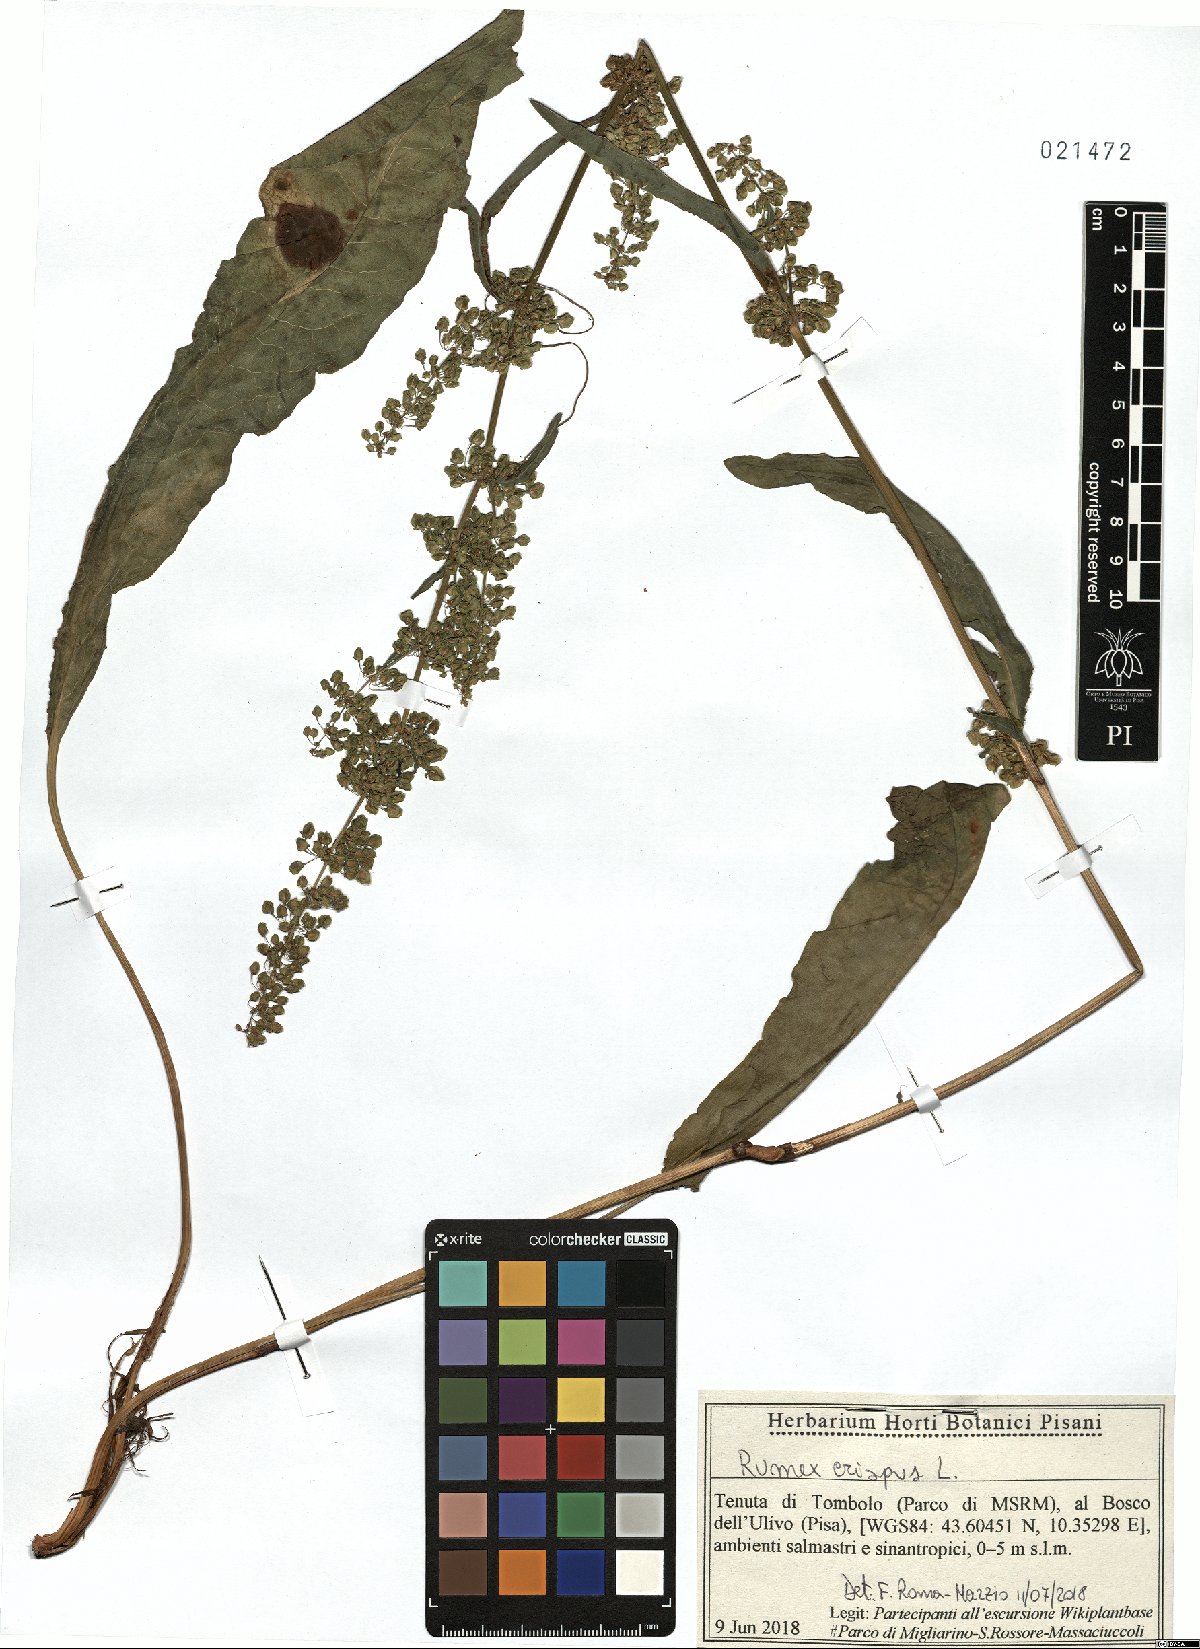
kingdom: Plantae
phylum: Tracheophyta
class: Magnoliopsida
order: Caryophyllales
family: Polygonaceae
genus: Rumex
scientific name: Rumex crispus
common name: Curled dock
